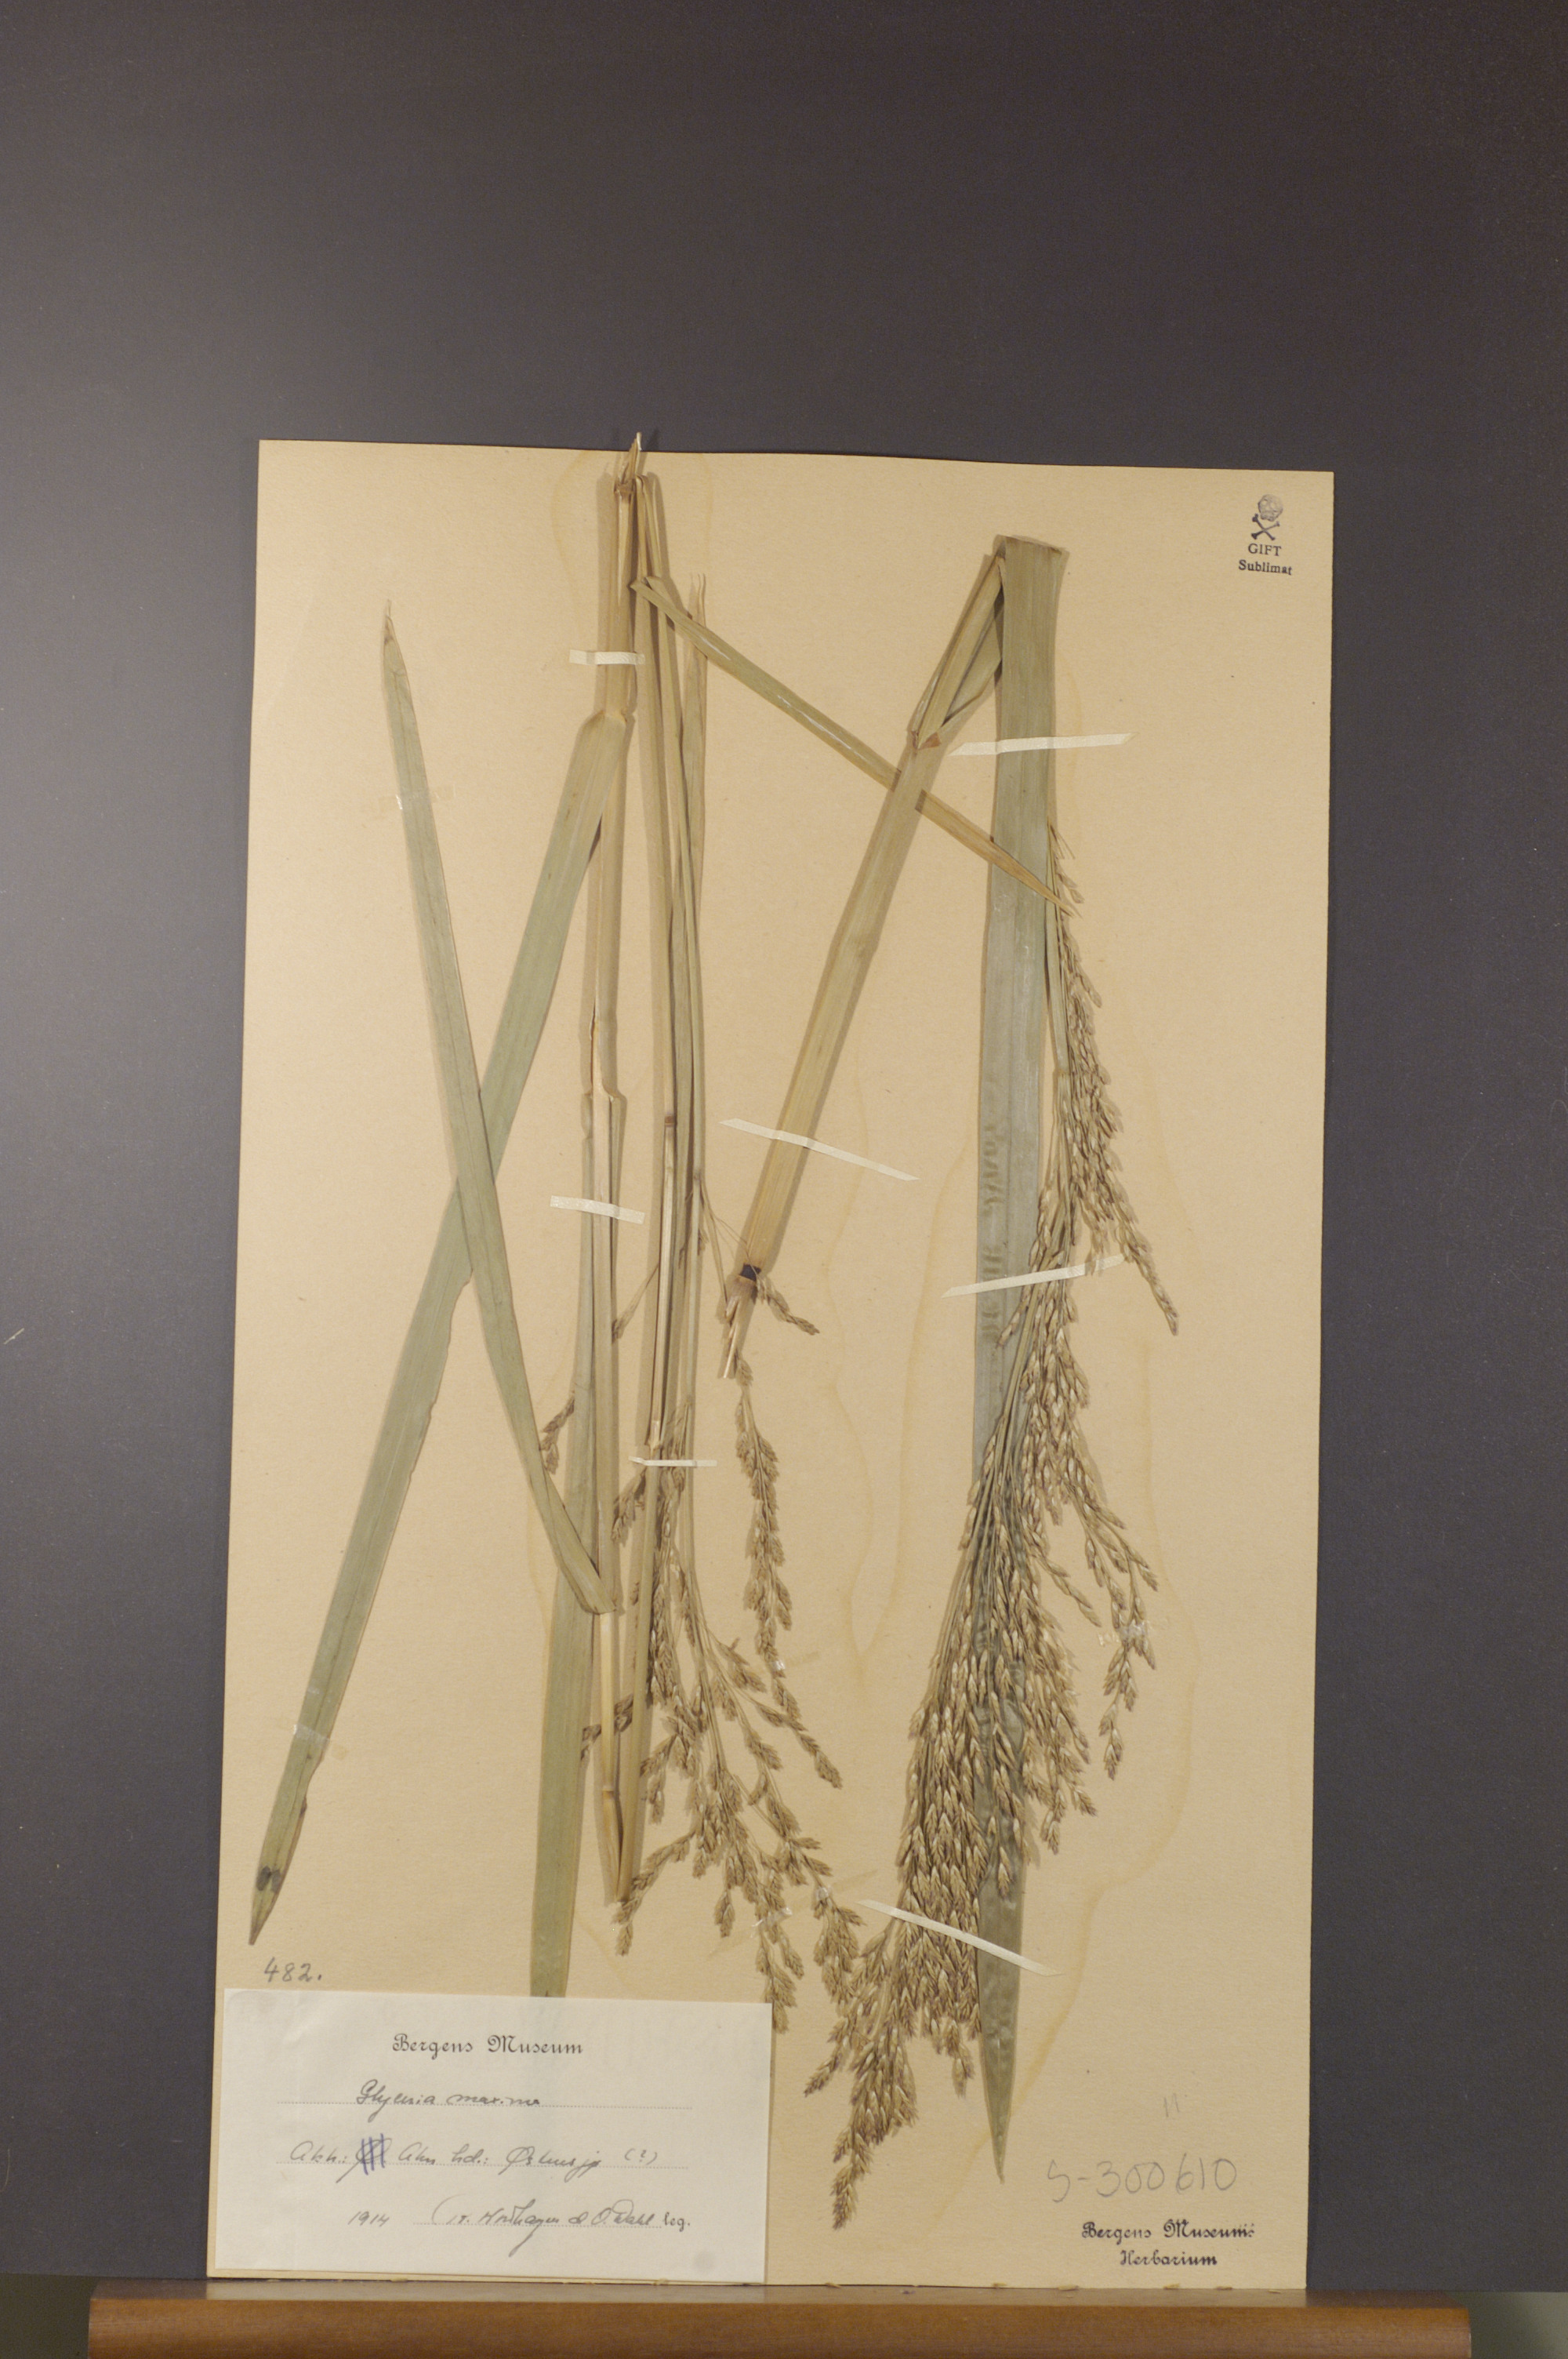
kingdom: Plantae
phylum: Tracheophyta
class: Liliopsida
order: Poales
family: Poaceae
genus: Glyceria
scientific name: Glyceria maxima
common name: Reed mannagrass
